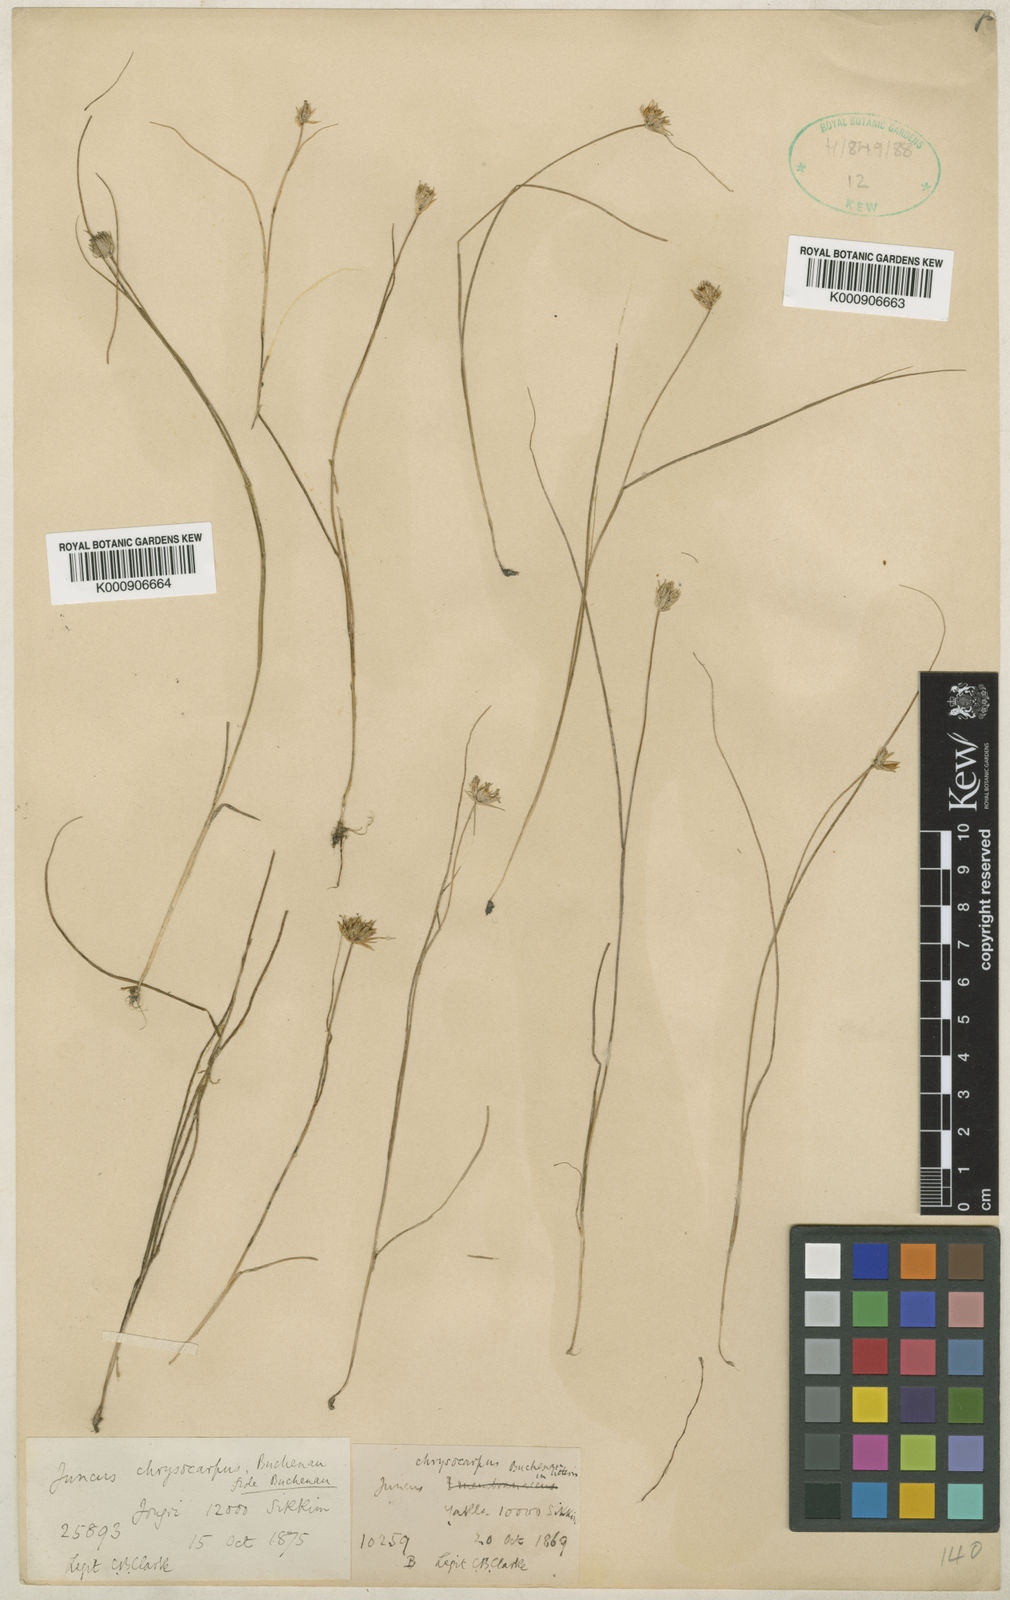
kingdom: Plantae
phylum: Tracheophyta
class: Liliopsida
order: Poales
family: Juncaceae
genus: Juncus
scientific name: Juncus chrysocarpus
